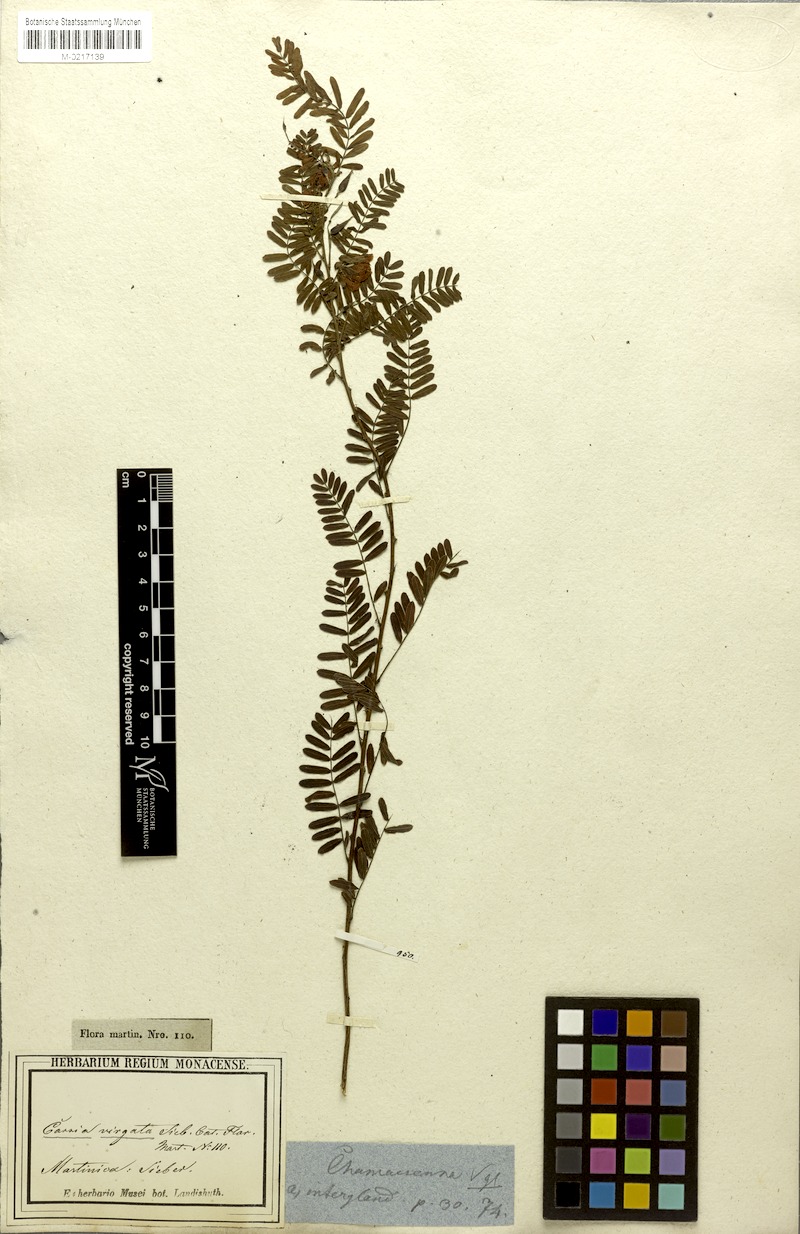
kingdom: Plantae
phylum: Tracheophyta
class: Magnoliopsida
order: Fabales
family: Fabaceae
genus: Chamaecrista
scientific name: Chamaecrista glandulosa
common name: Wild peas
